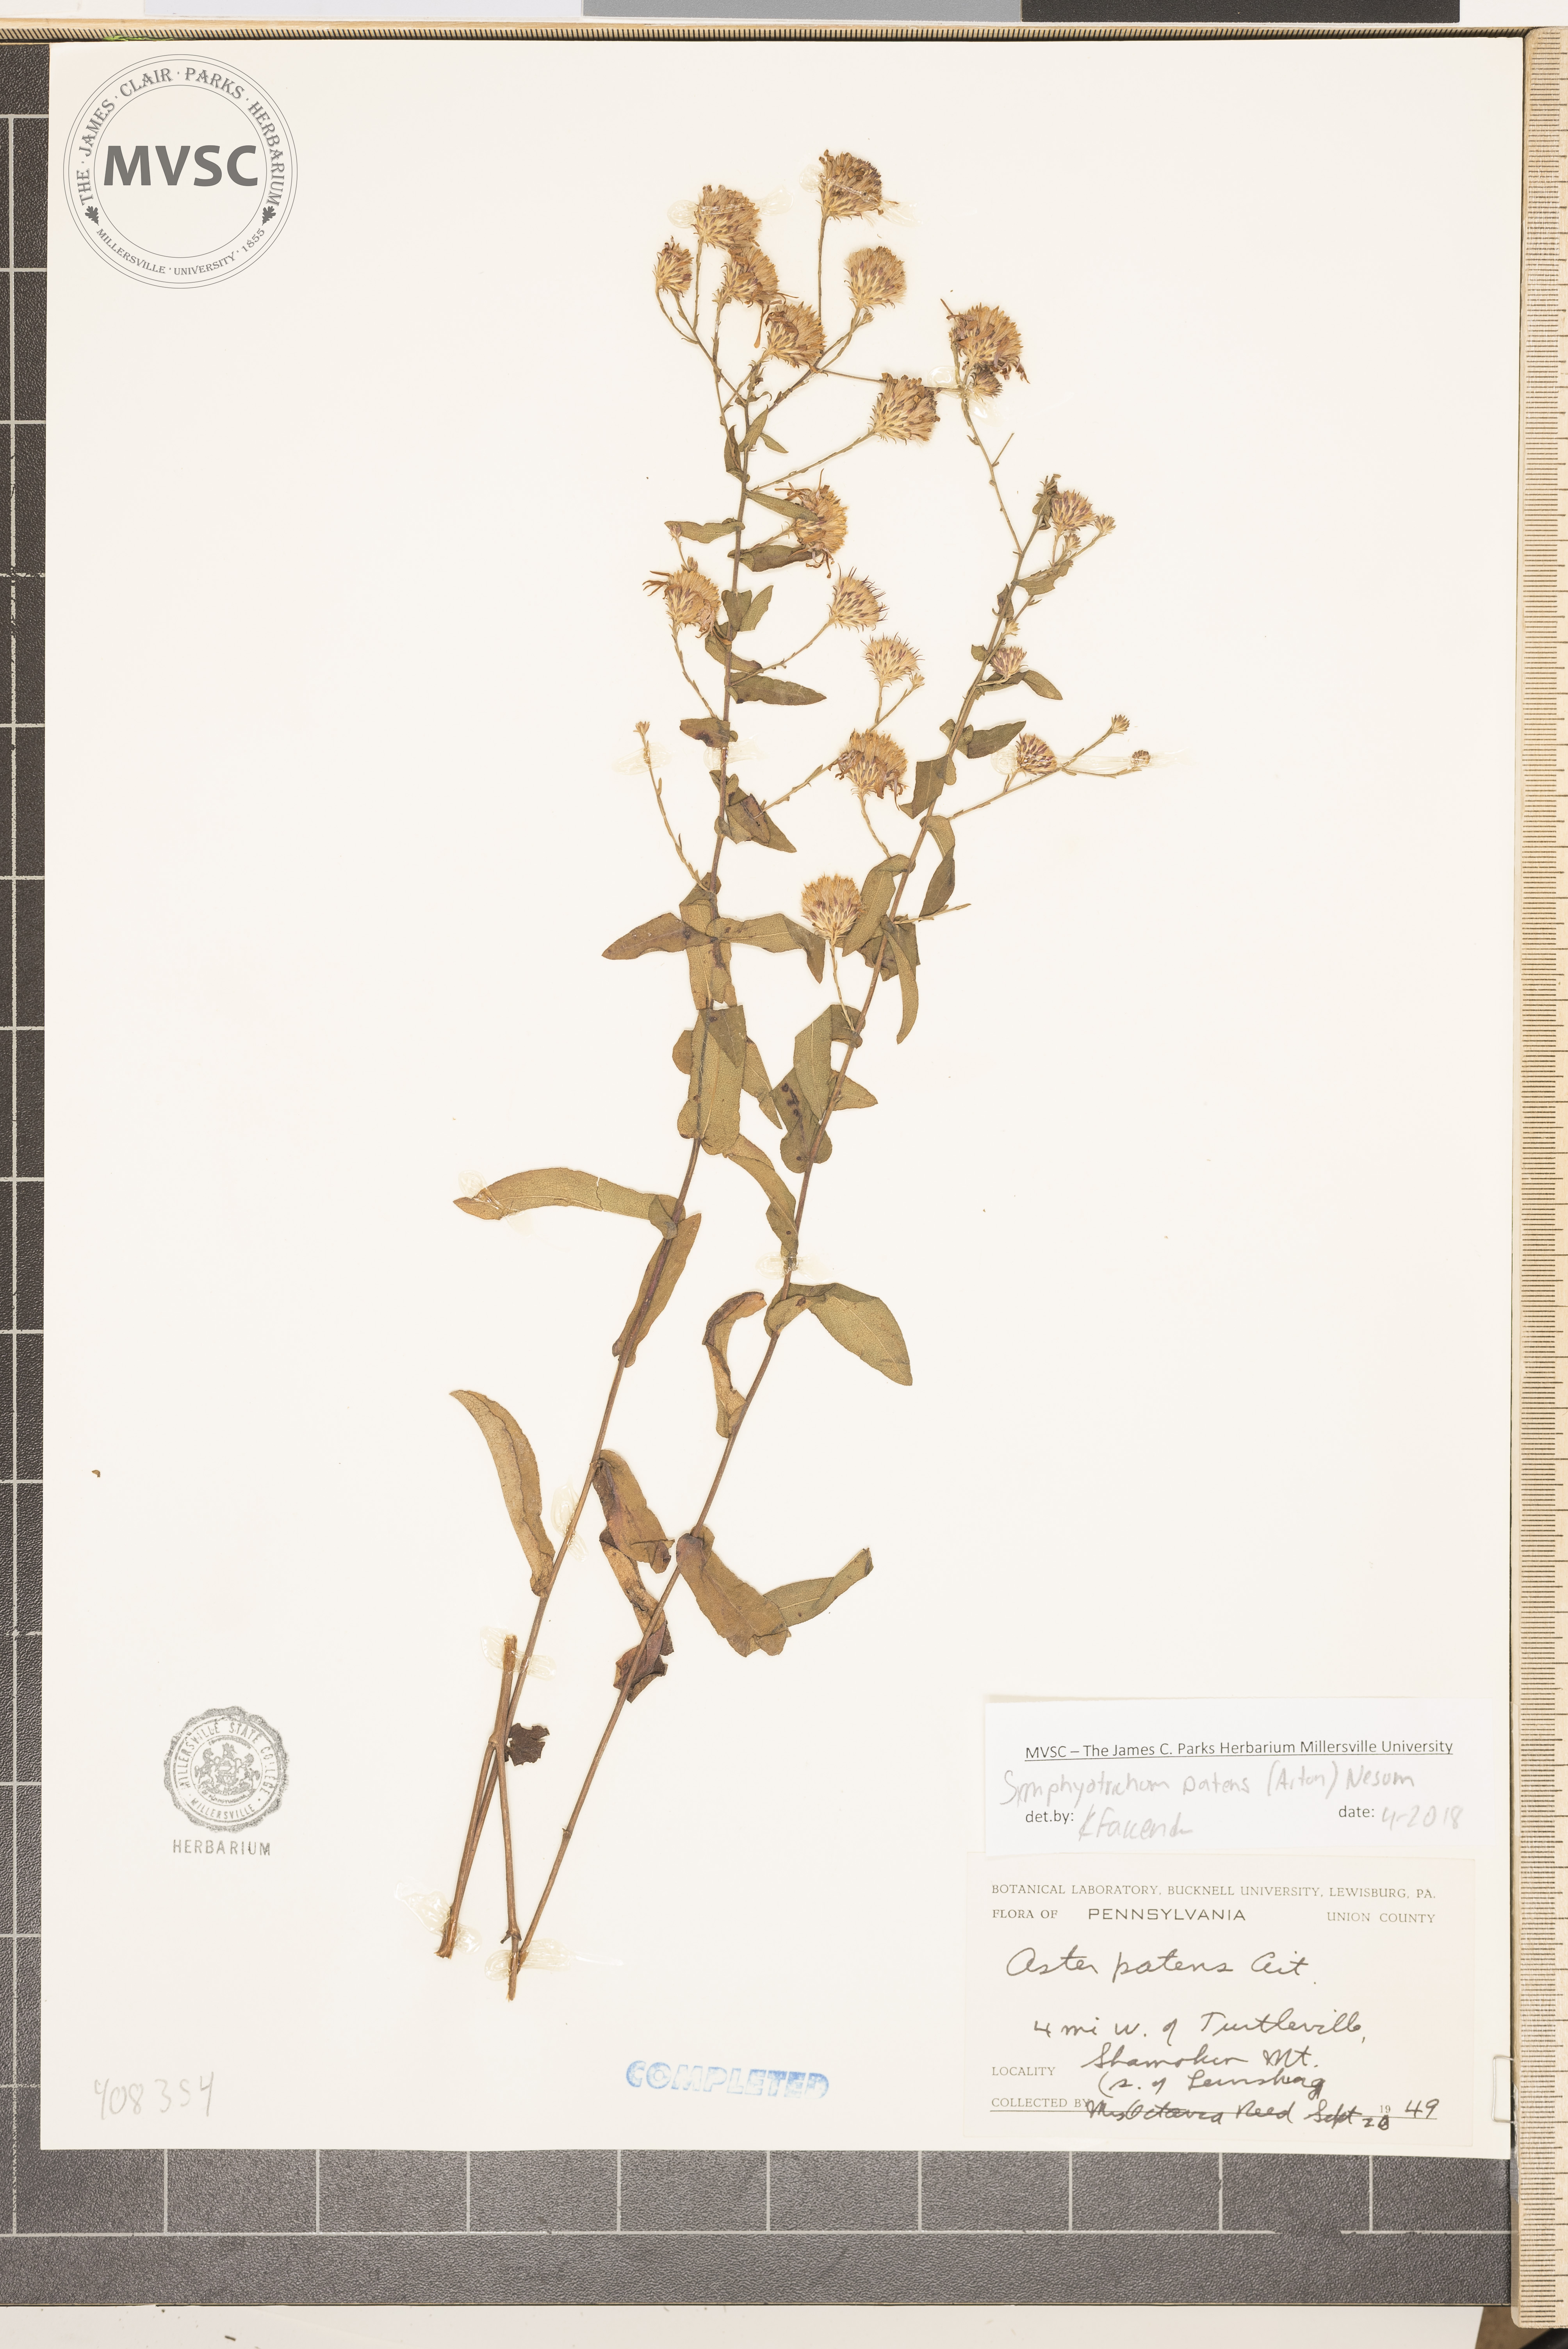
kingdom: Plantae
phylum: Tracheophyta
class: Magnoliopsida
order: Asterales
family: Asteraceae
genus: Symphyotrichum
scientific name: Symphyotrichum patens
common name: Late purple aster
